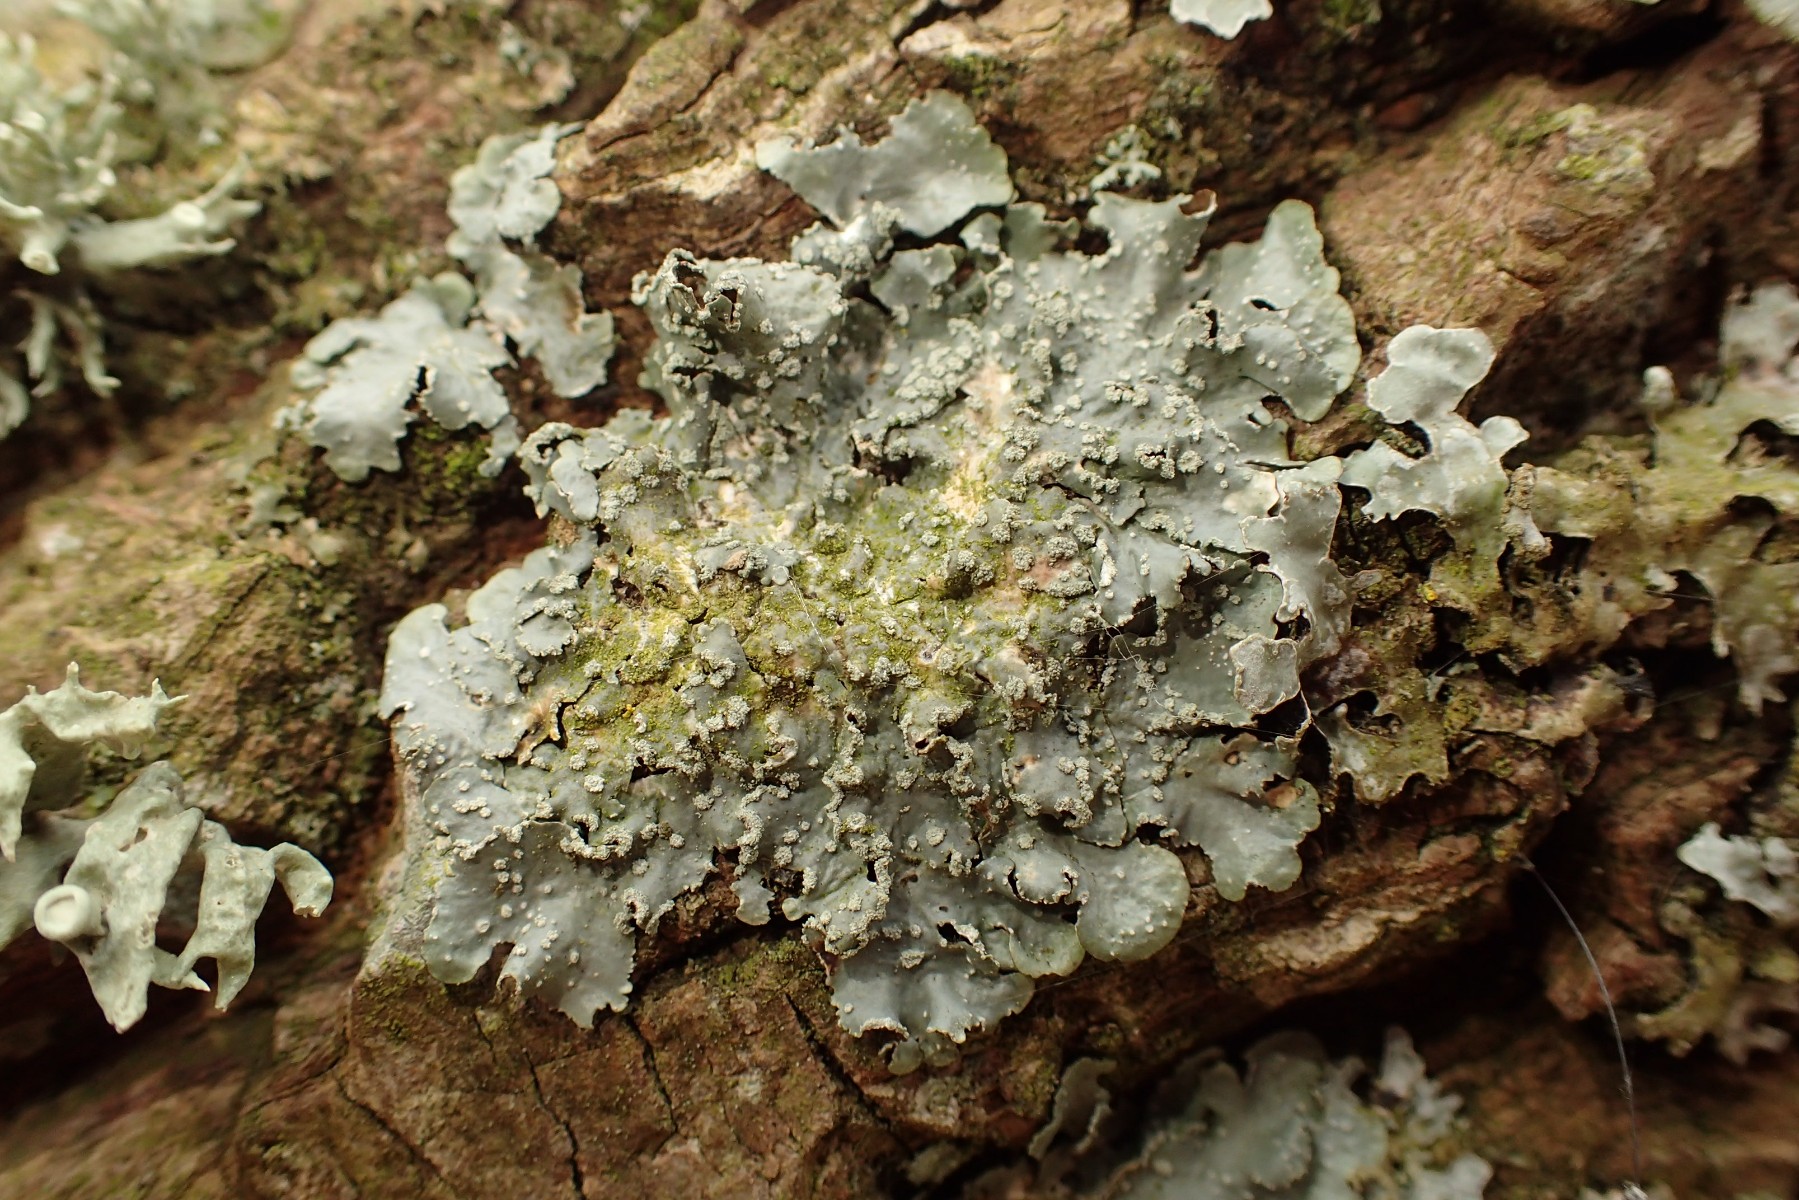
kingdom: Fungi
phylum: Ascomycota
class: Lecanoromycetes
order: Lecanorales
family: Parmeliaceae
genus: Punctelia
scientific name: Punctelia subrudecta
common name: punkt-skållav
